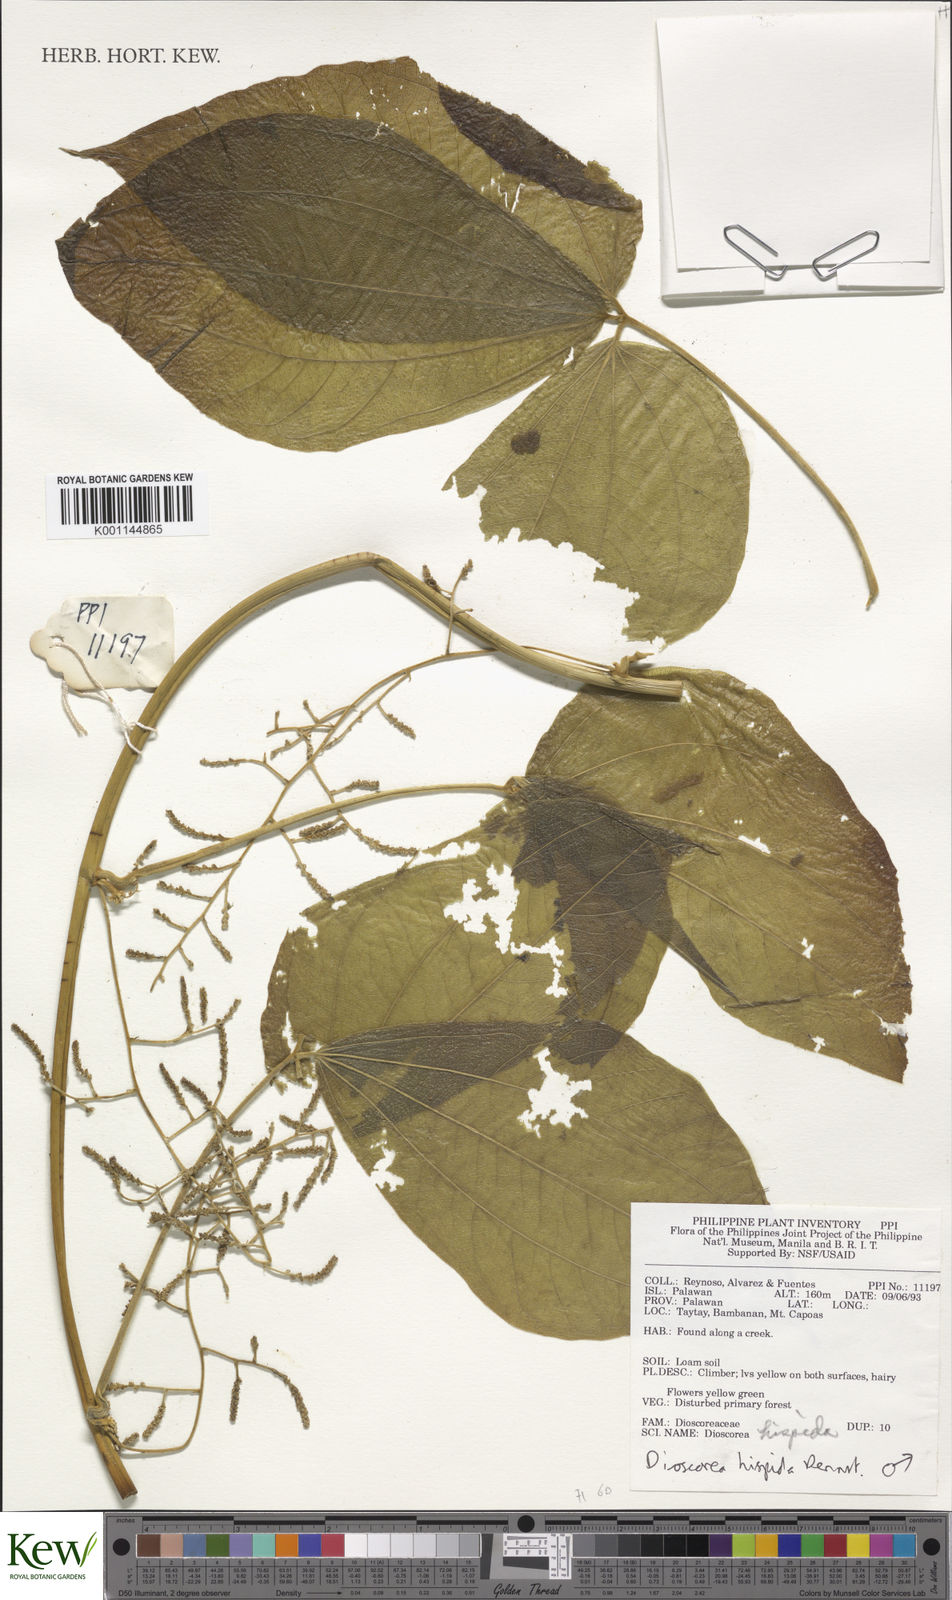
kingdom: Plantae
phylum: Tracheophyta
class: Liliopsida
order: Dioscoreales
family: Dioscoreaceae
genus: Dioscorea
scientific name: Dioscorea hispida
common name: Asiatic bitter yam
